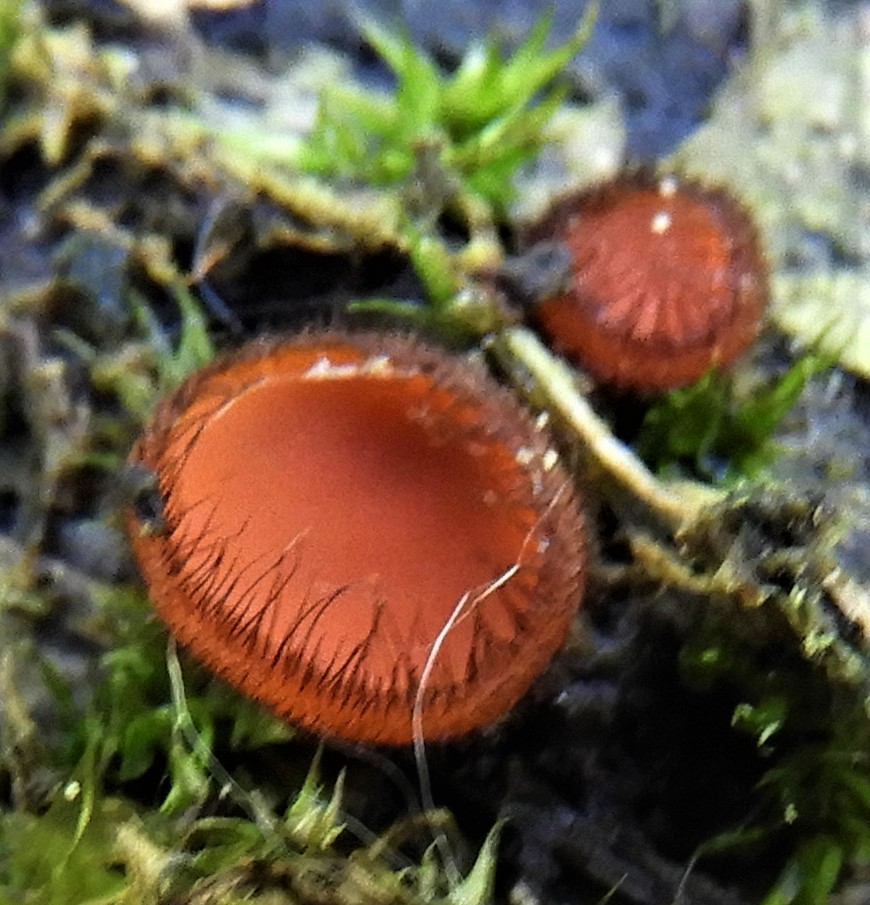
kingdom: Fungi
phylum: Ascomycota
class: Pezizomycetes
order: Pezizales
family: Pyronemataceae
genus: Scutellinia
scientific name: Scutellinia scutellata
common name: frynset skjoldbæger
